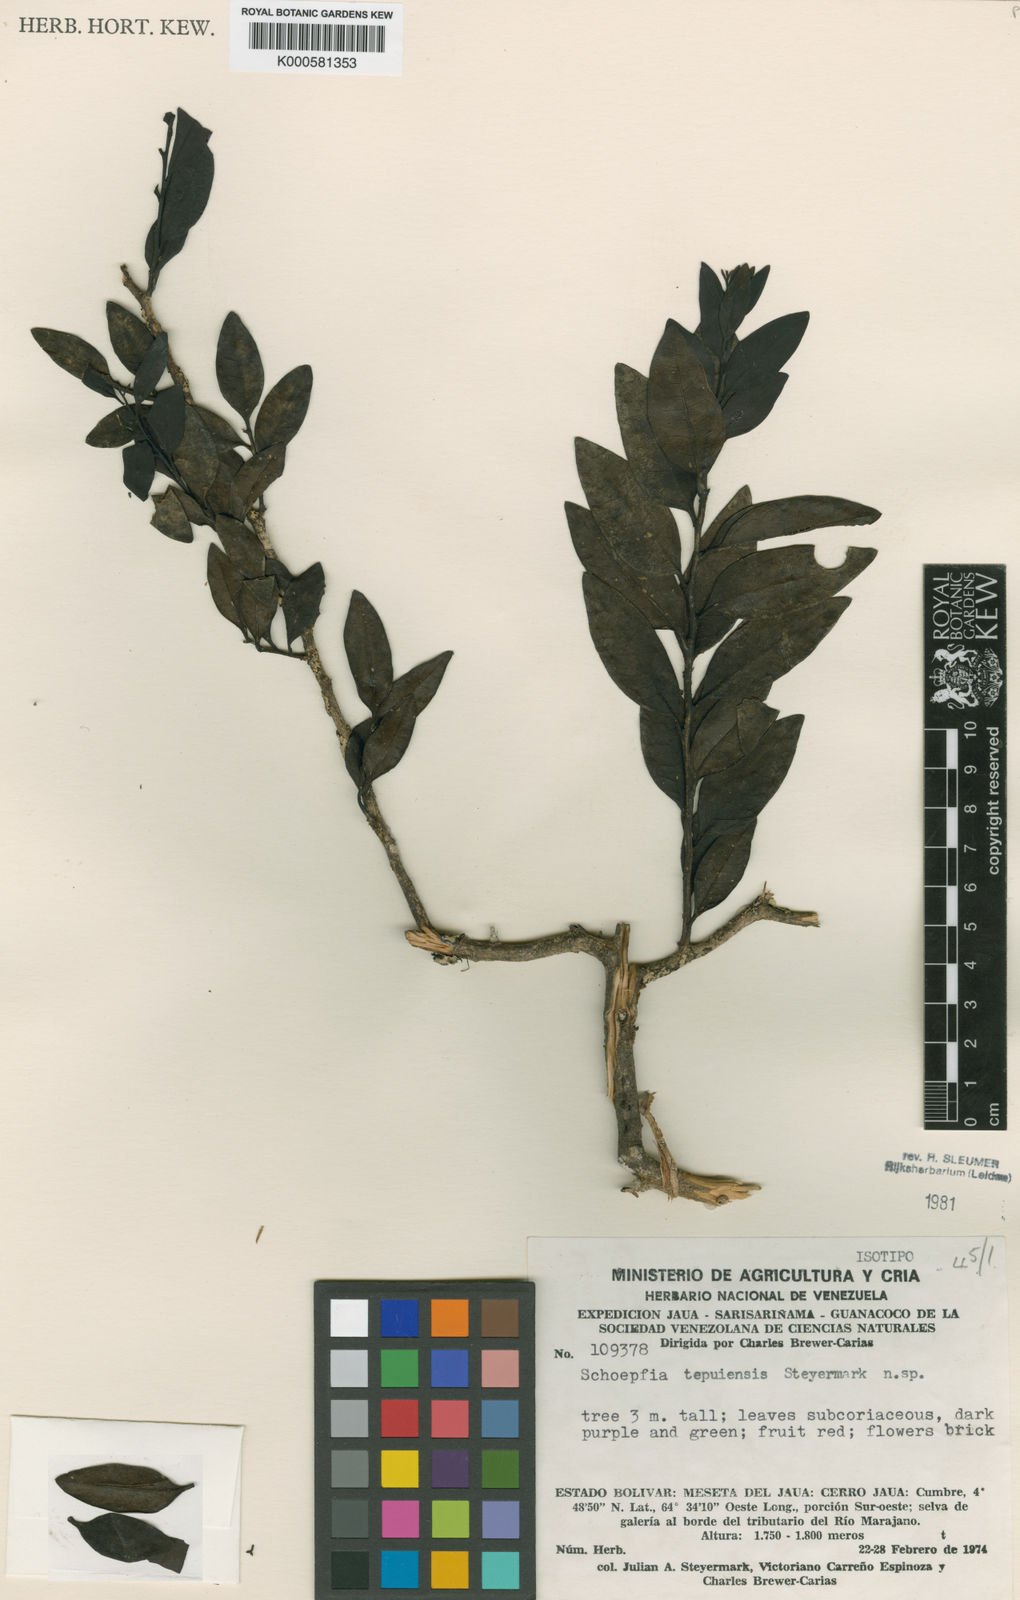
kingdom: Plantae
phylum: Tracheophyta
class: Magnoliopsida
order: Santalales
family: Schoepfiaceae
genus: Schoepfia
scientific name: Schoepfia tepuiensis
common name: Tepuí graytwig
